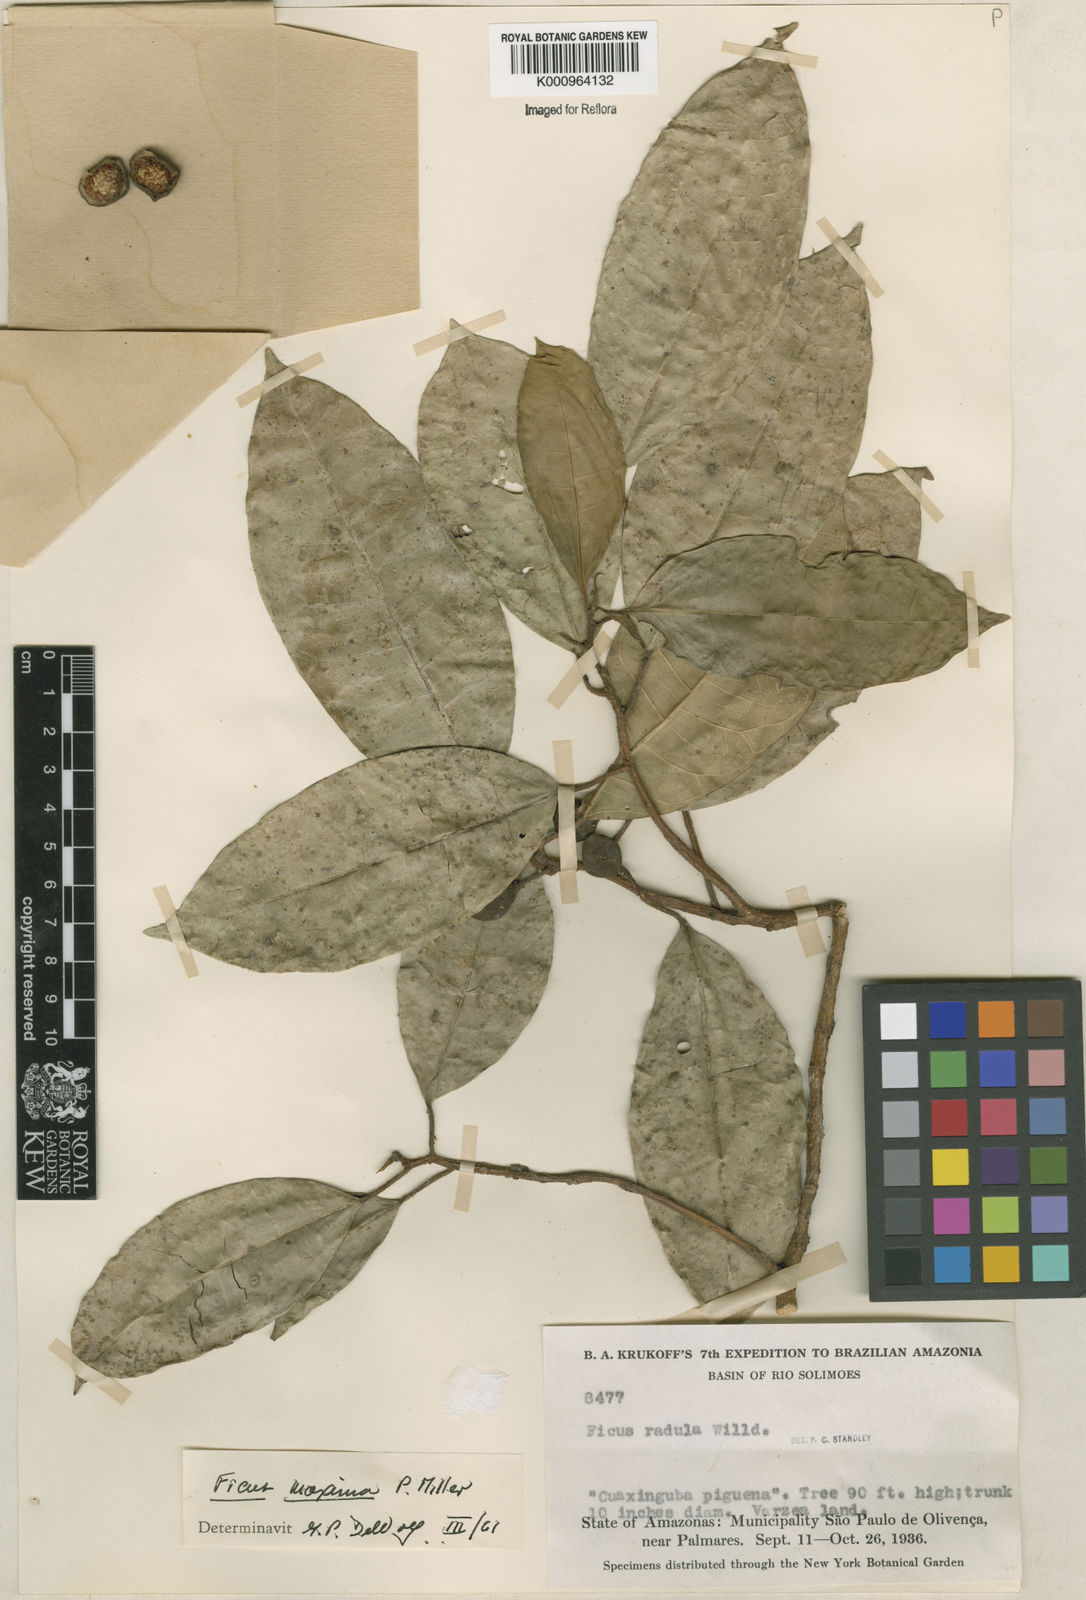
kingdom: Plantae
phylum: Tracheophyta
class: Magnoliopsida
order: Rosales
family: Moraceae
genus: Ficus
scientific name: Ficus maxima
